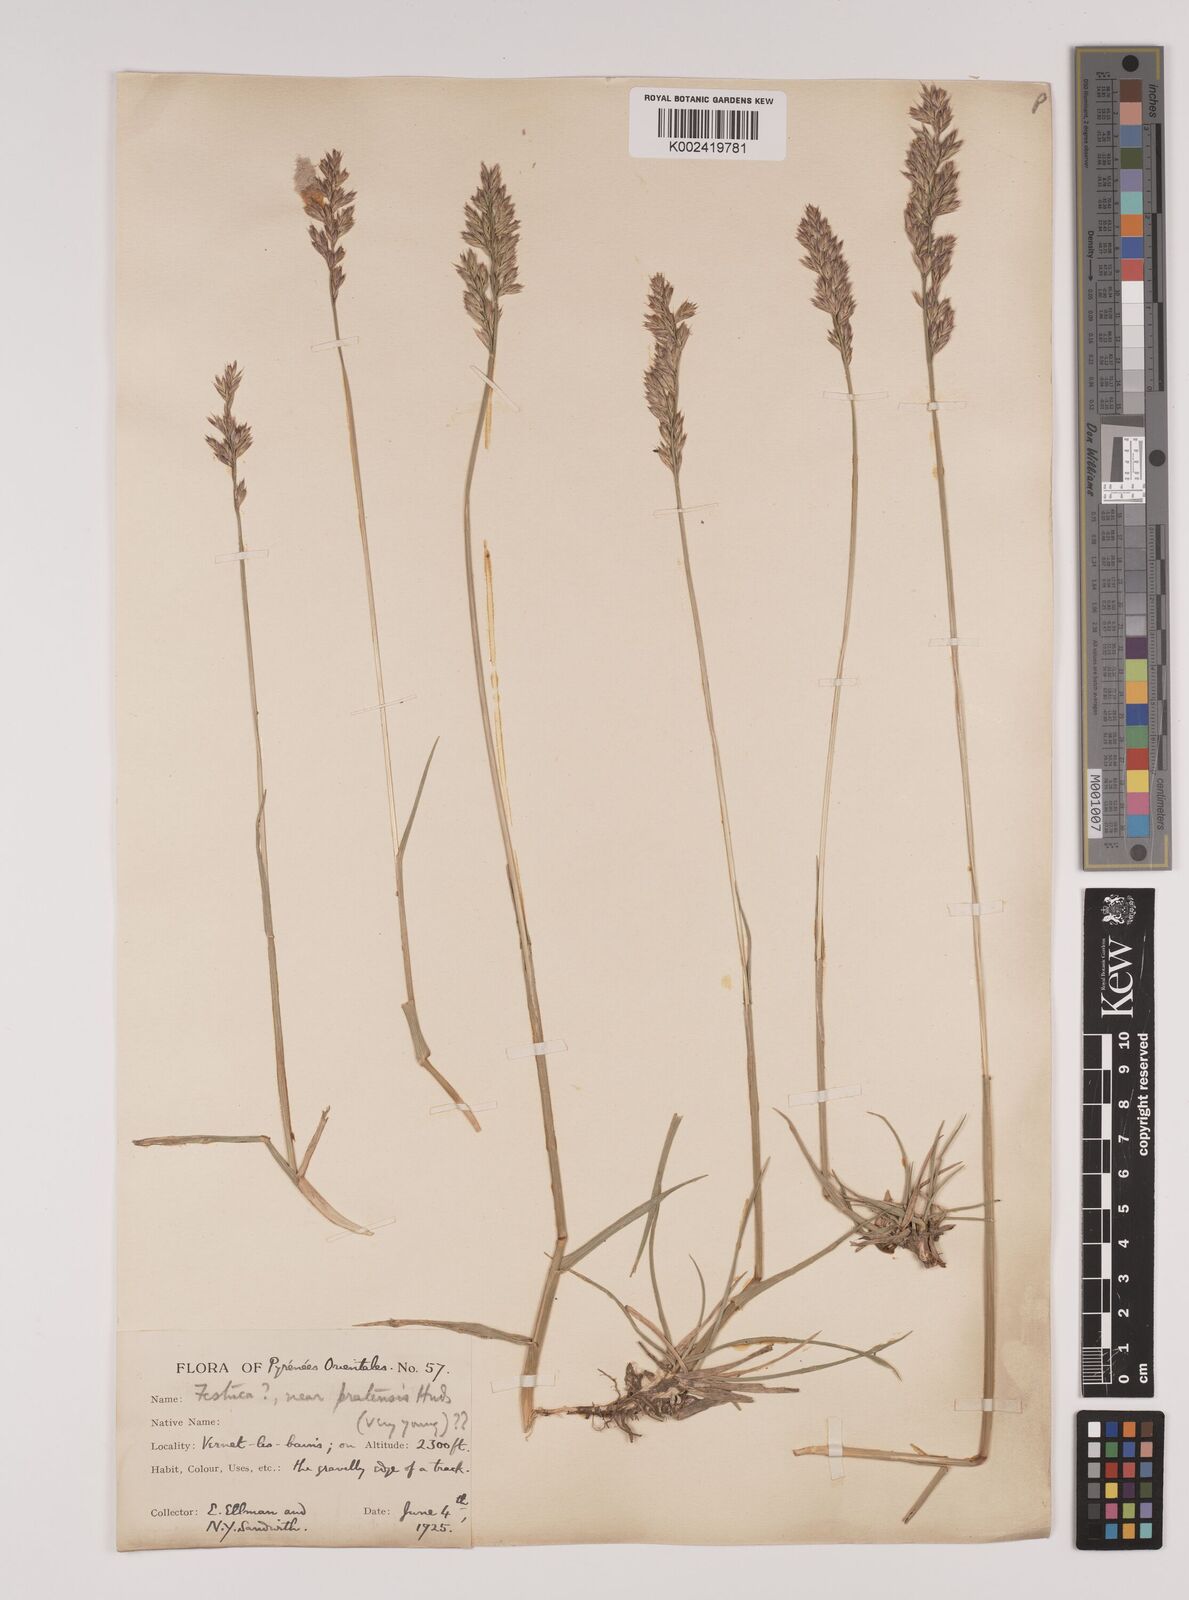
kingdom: Plantae
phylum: Tracheophyta
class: Liliopsida
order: Poales
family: Poaceae
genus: Lolium
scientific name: Lolium pratense
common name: Dover grass
